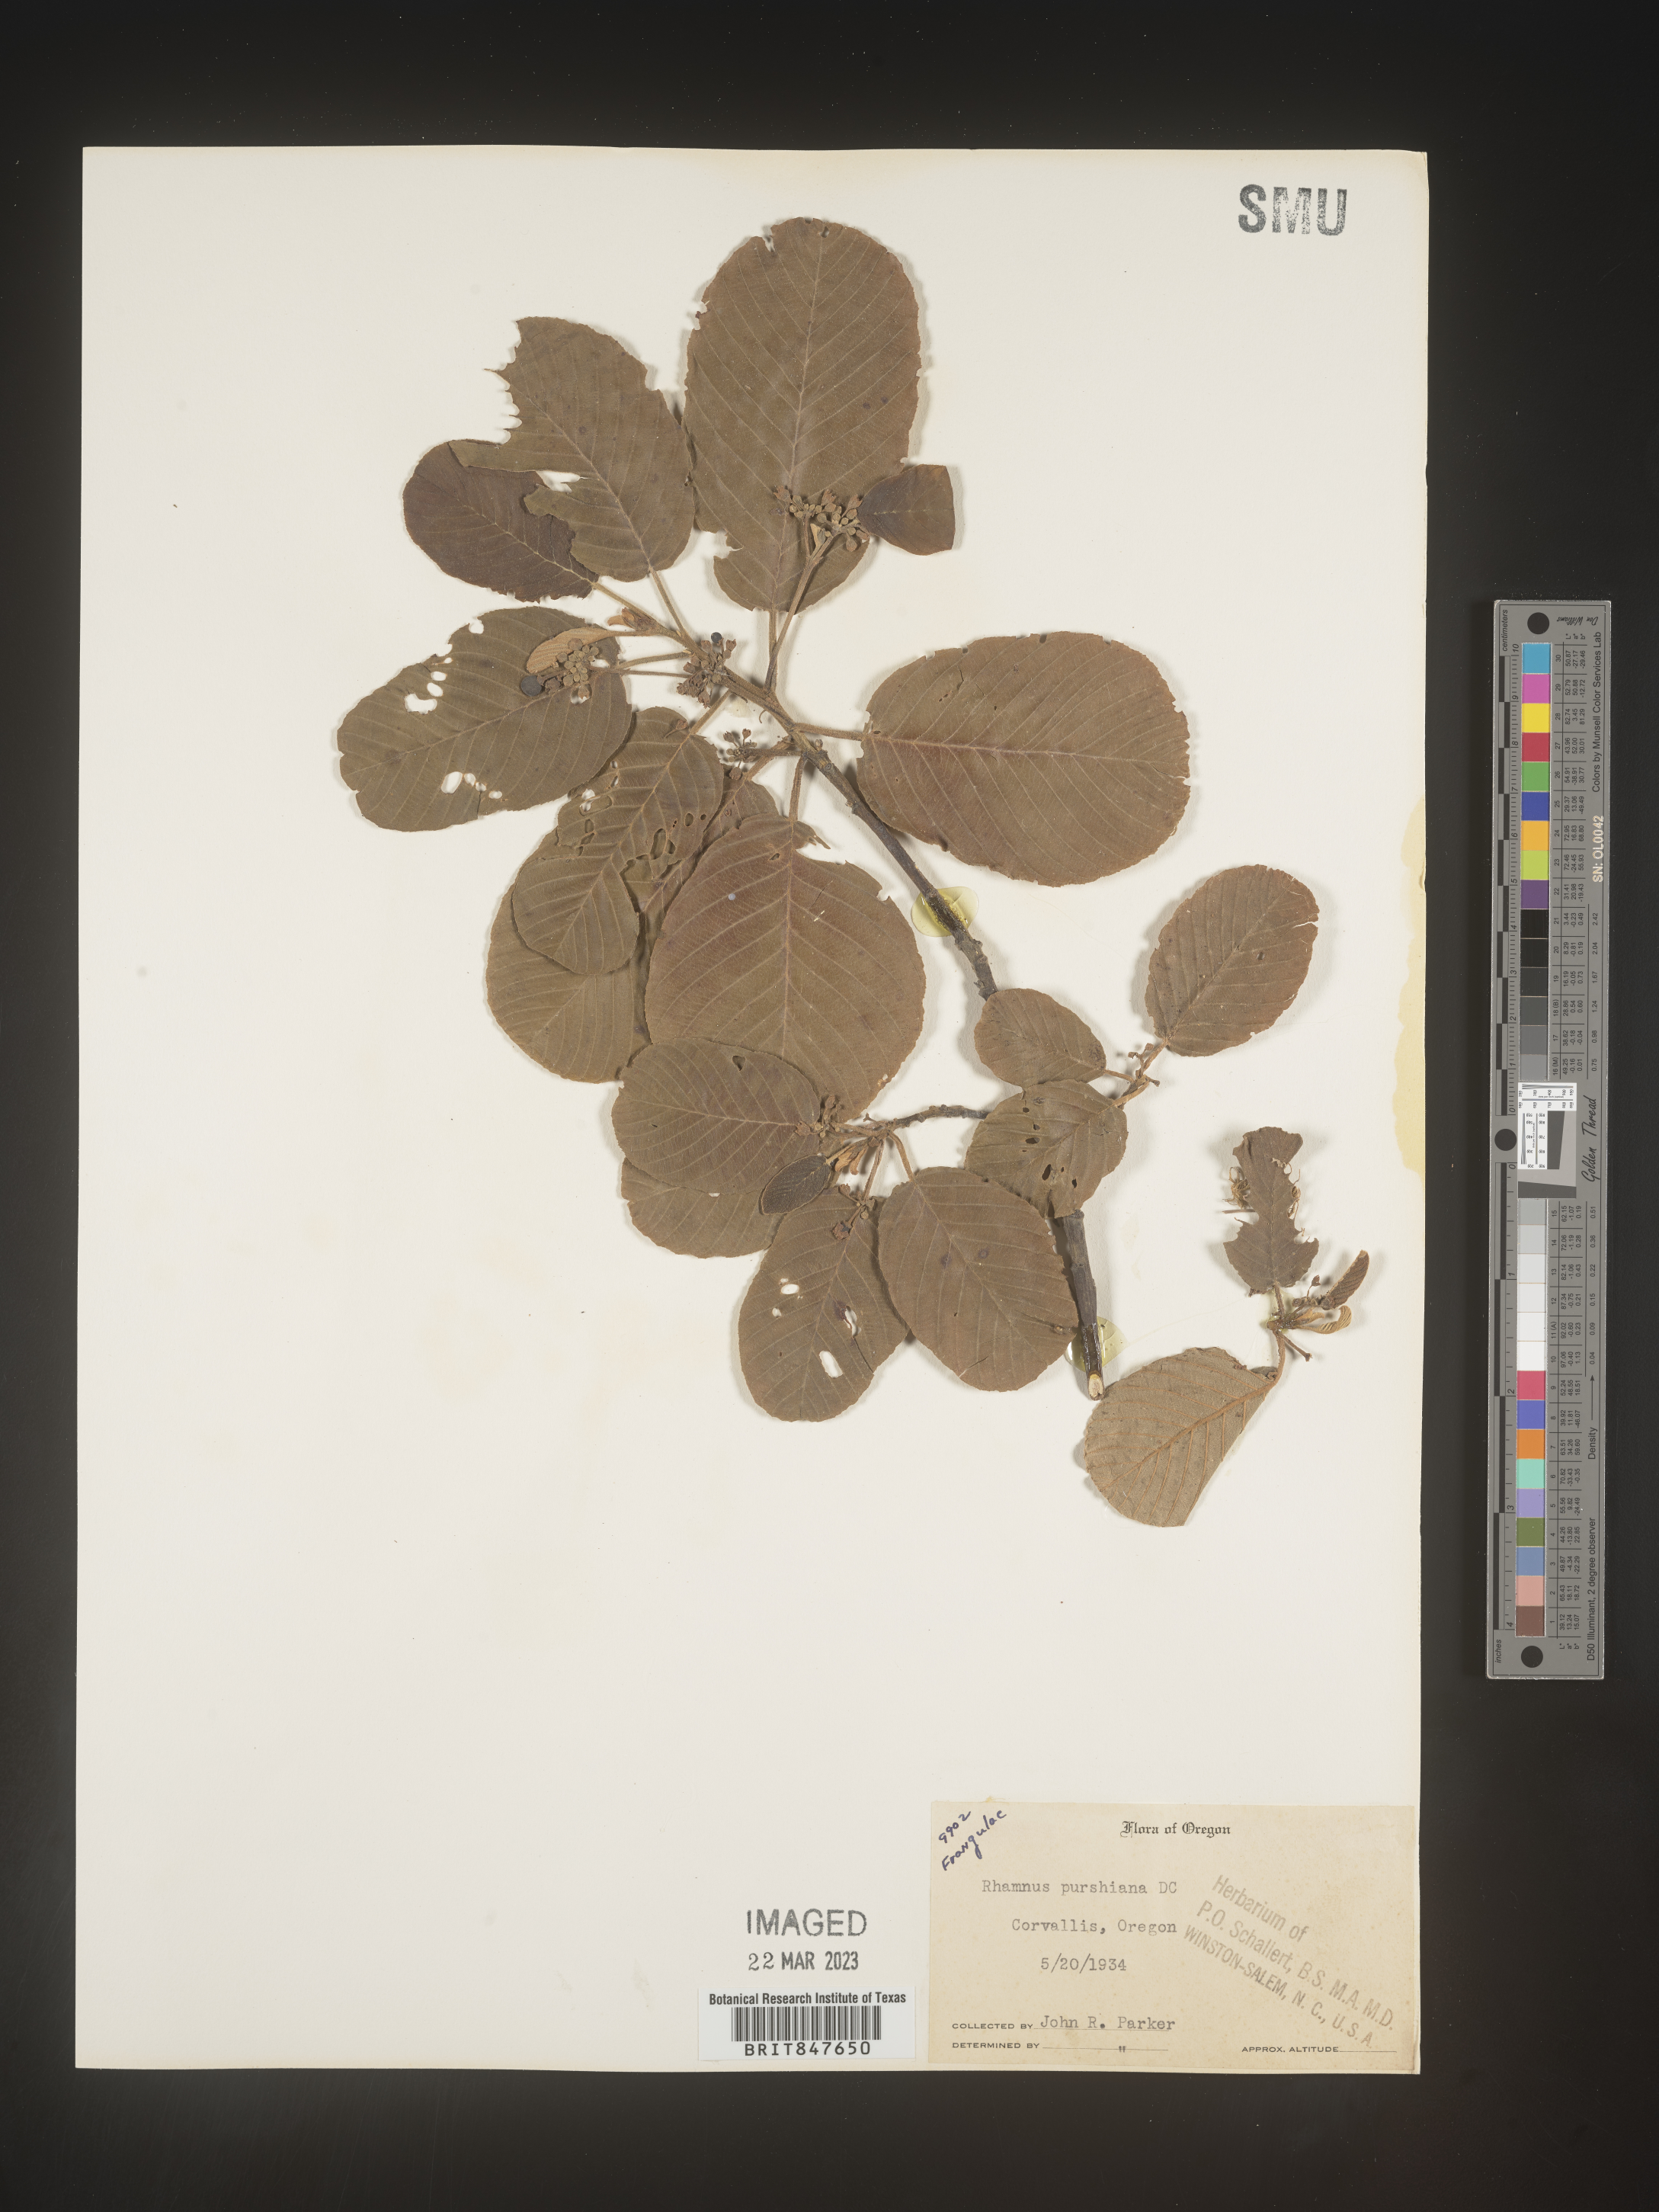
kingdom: Plantae
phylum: Tracheophyta
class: Magnoliopsida
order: Rosales
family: Rhamnaceae
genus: Frangula
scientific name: Frangula purshiana
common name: Cascara buckthorn
